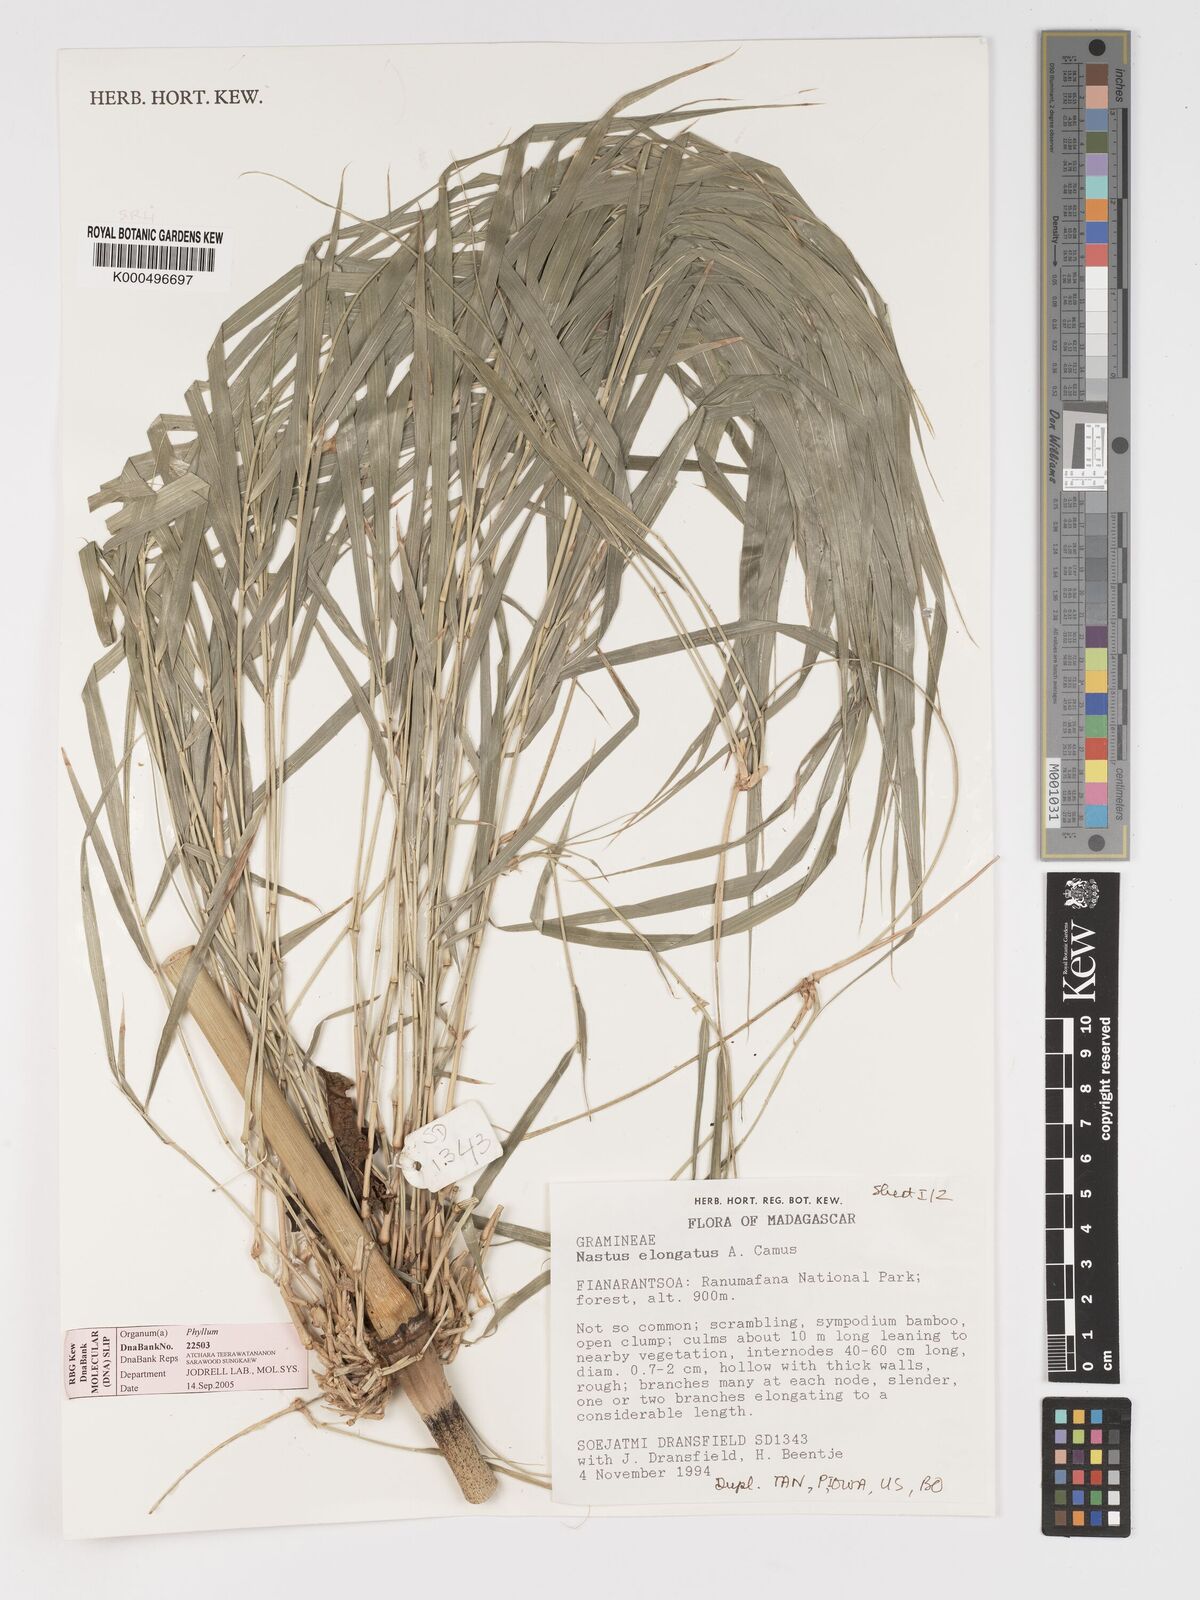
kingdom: Plantae
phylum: Tracheophyta
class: Liliopsida
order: Poales
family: Poaceae
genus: Nastus
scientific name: Nastus elongatus
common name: Spider bamboo
